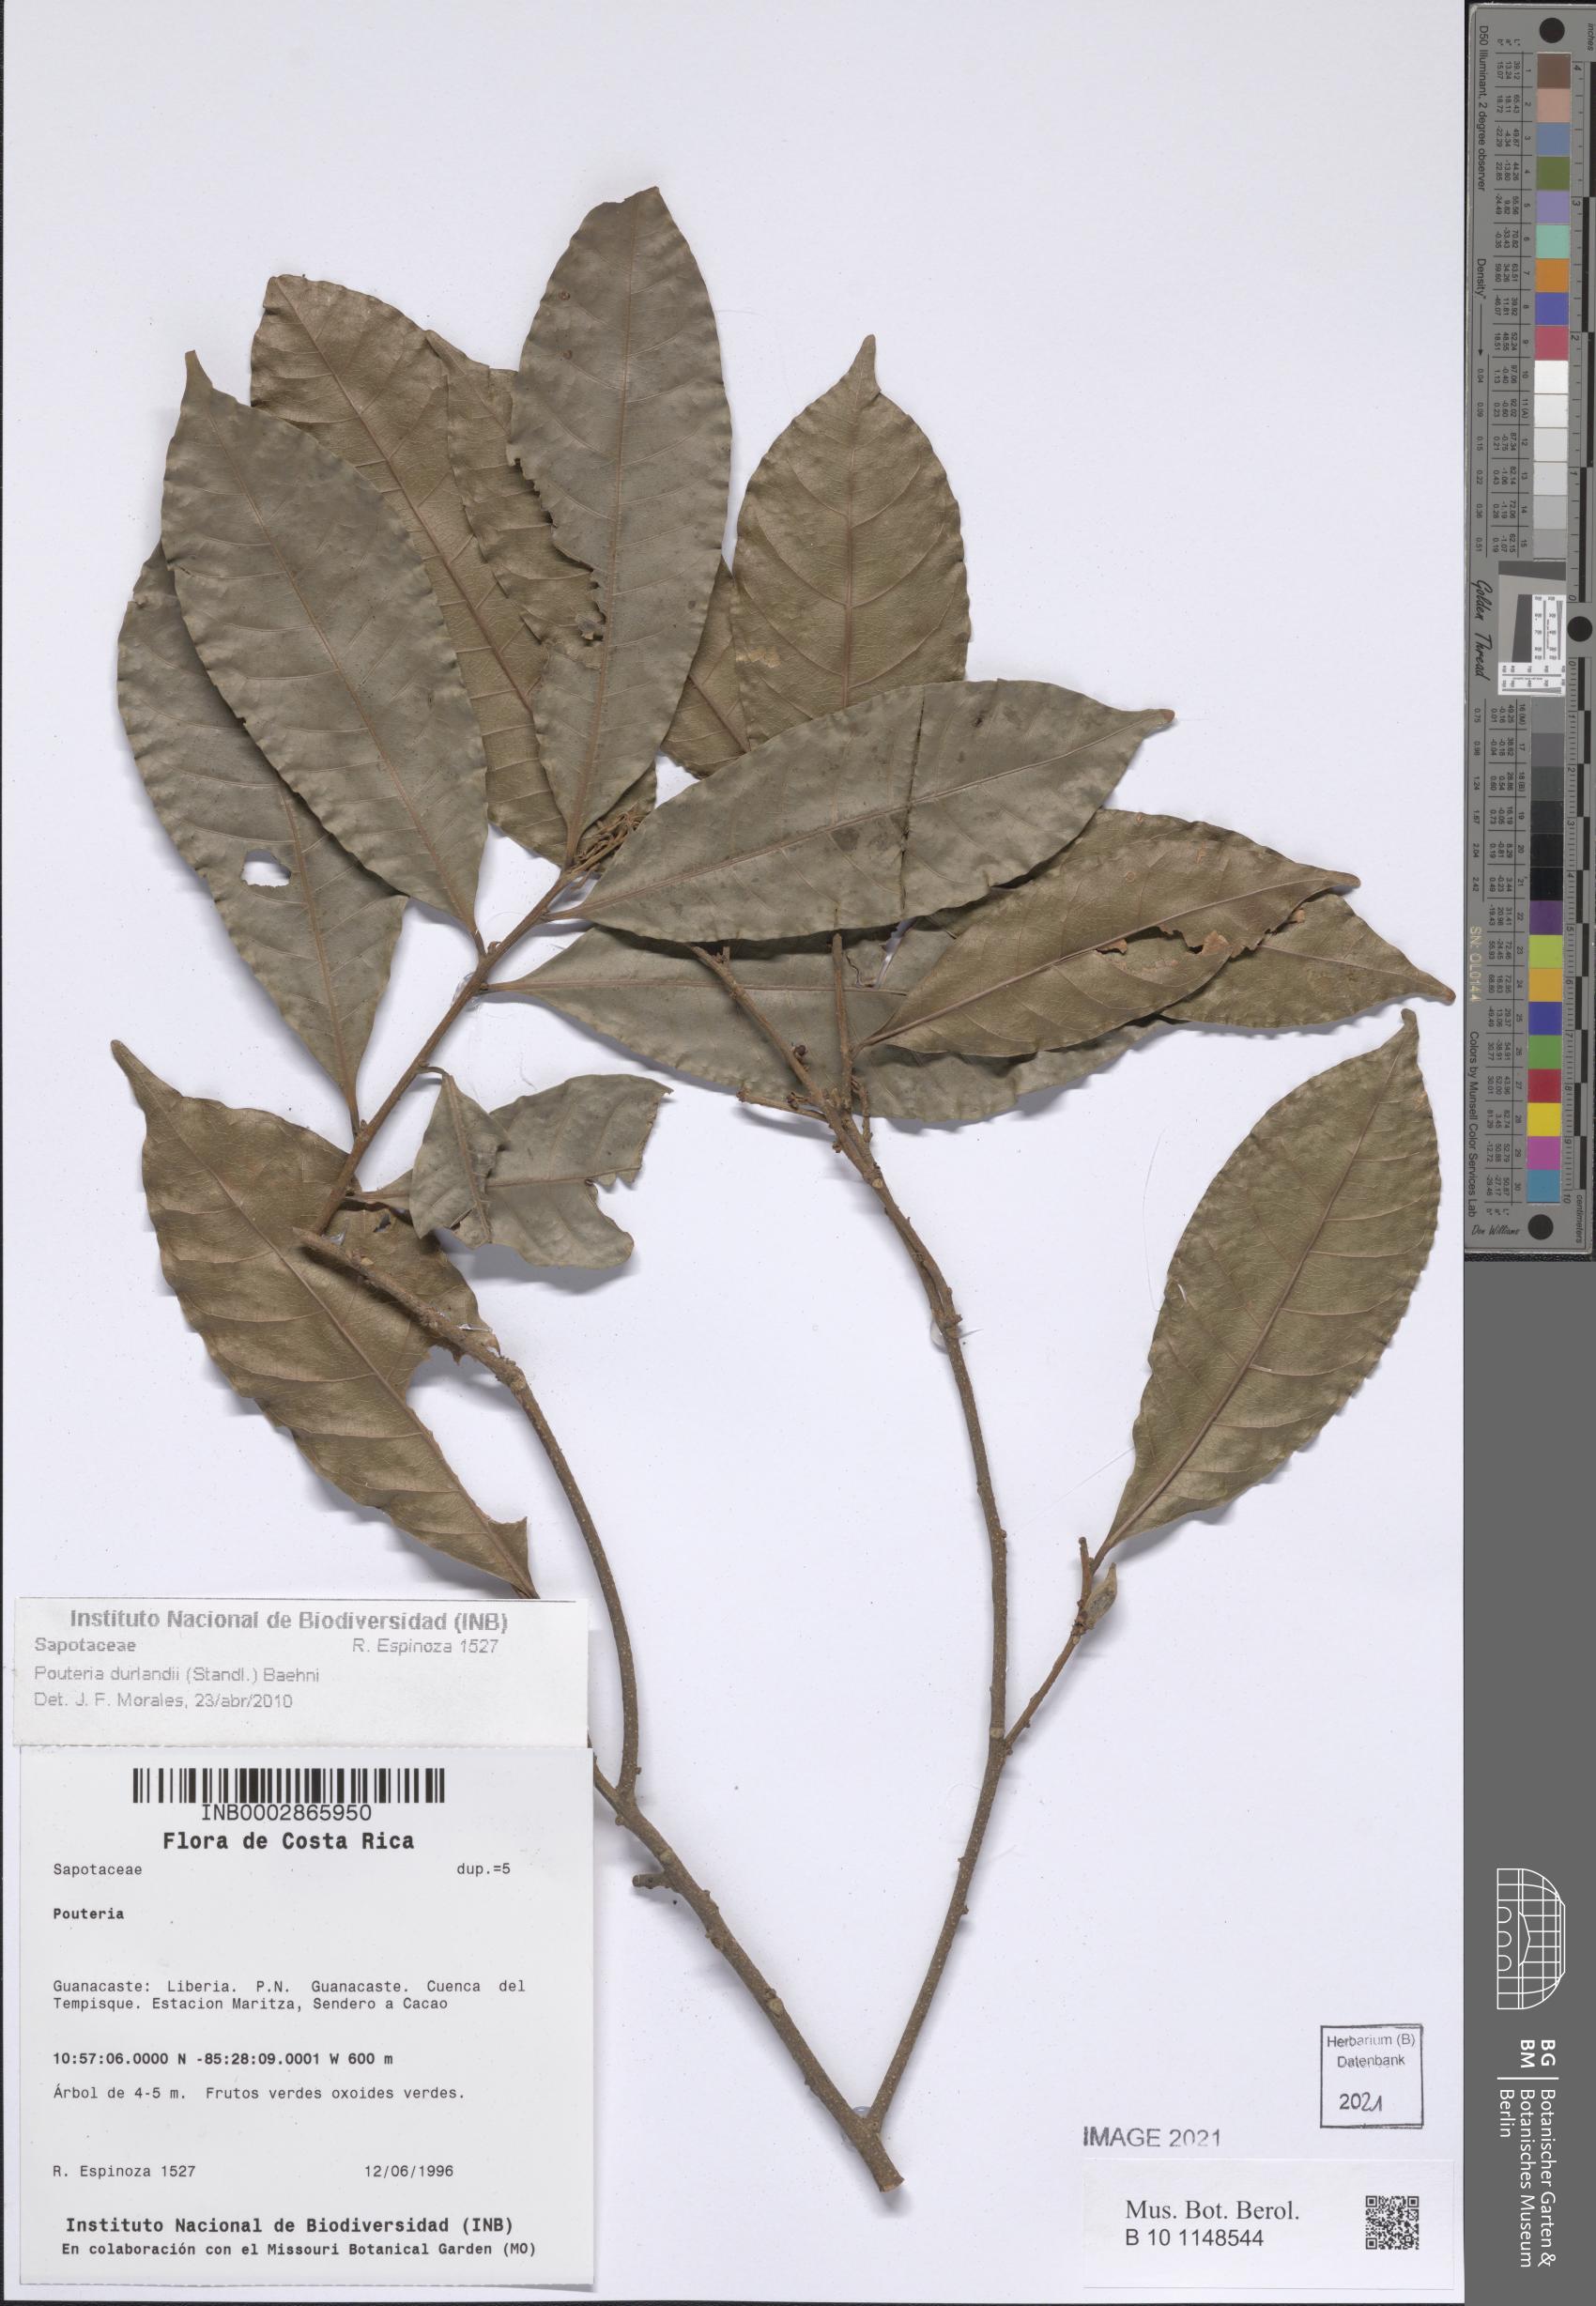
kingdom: Plantae
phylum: Tracheophyta
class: Magnoliopsida
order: Ericales
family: Sapotaceae
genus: Pouteria
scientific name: Pouteria durlandii
